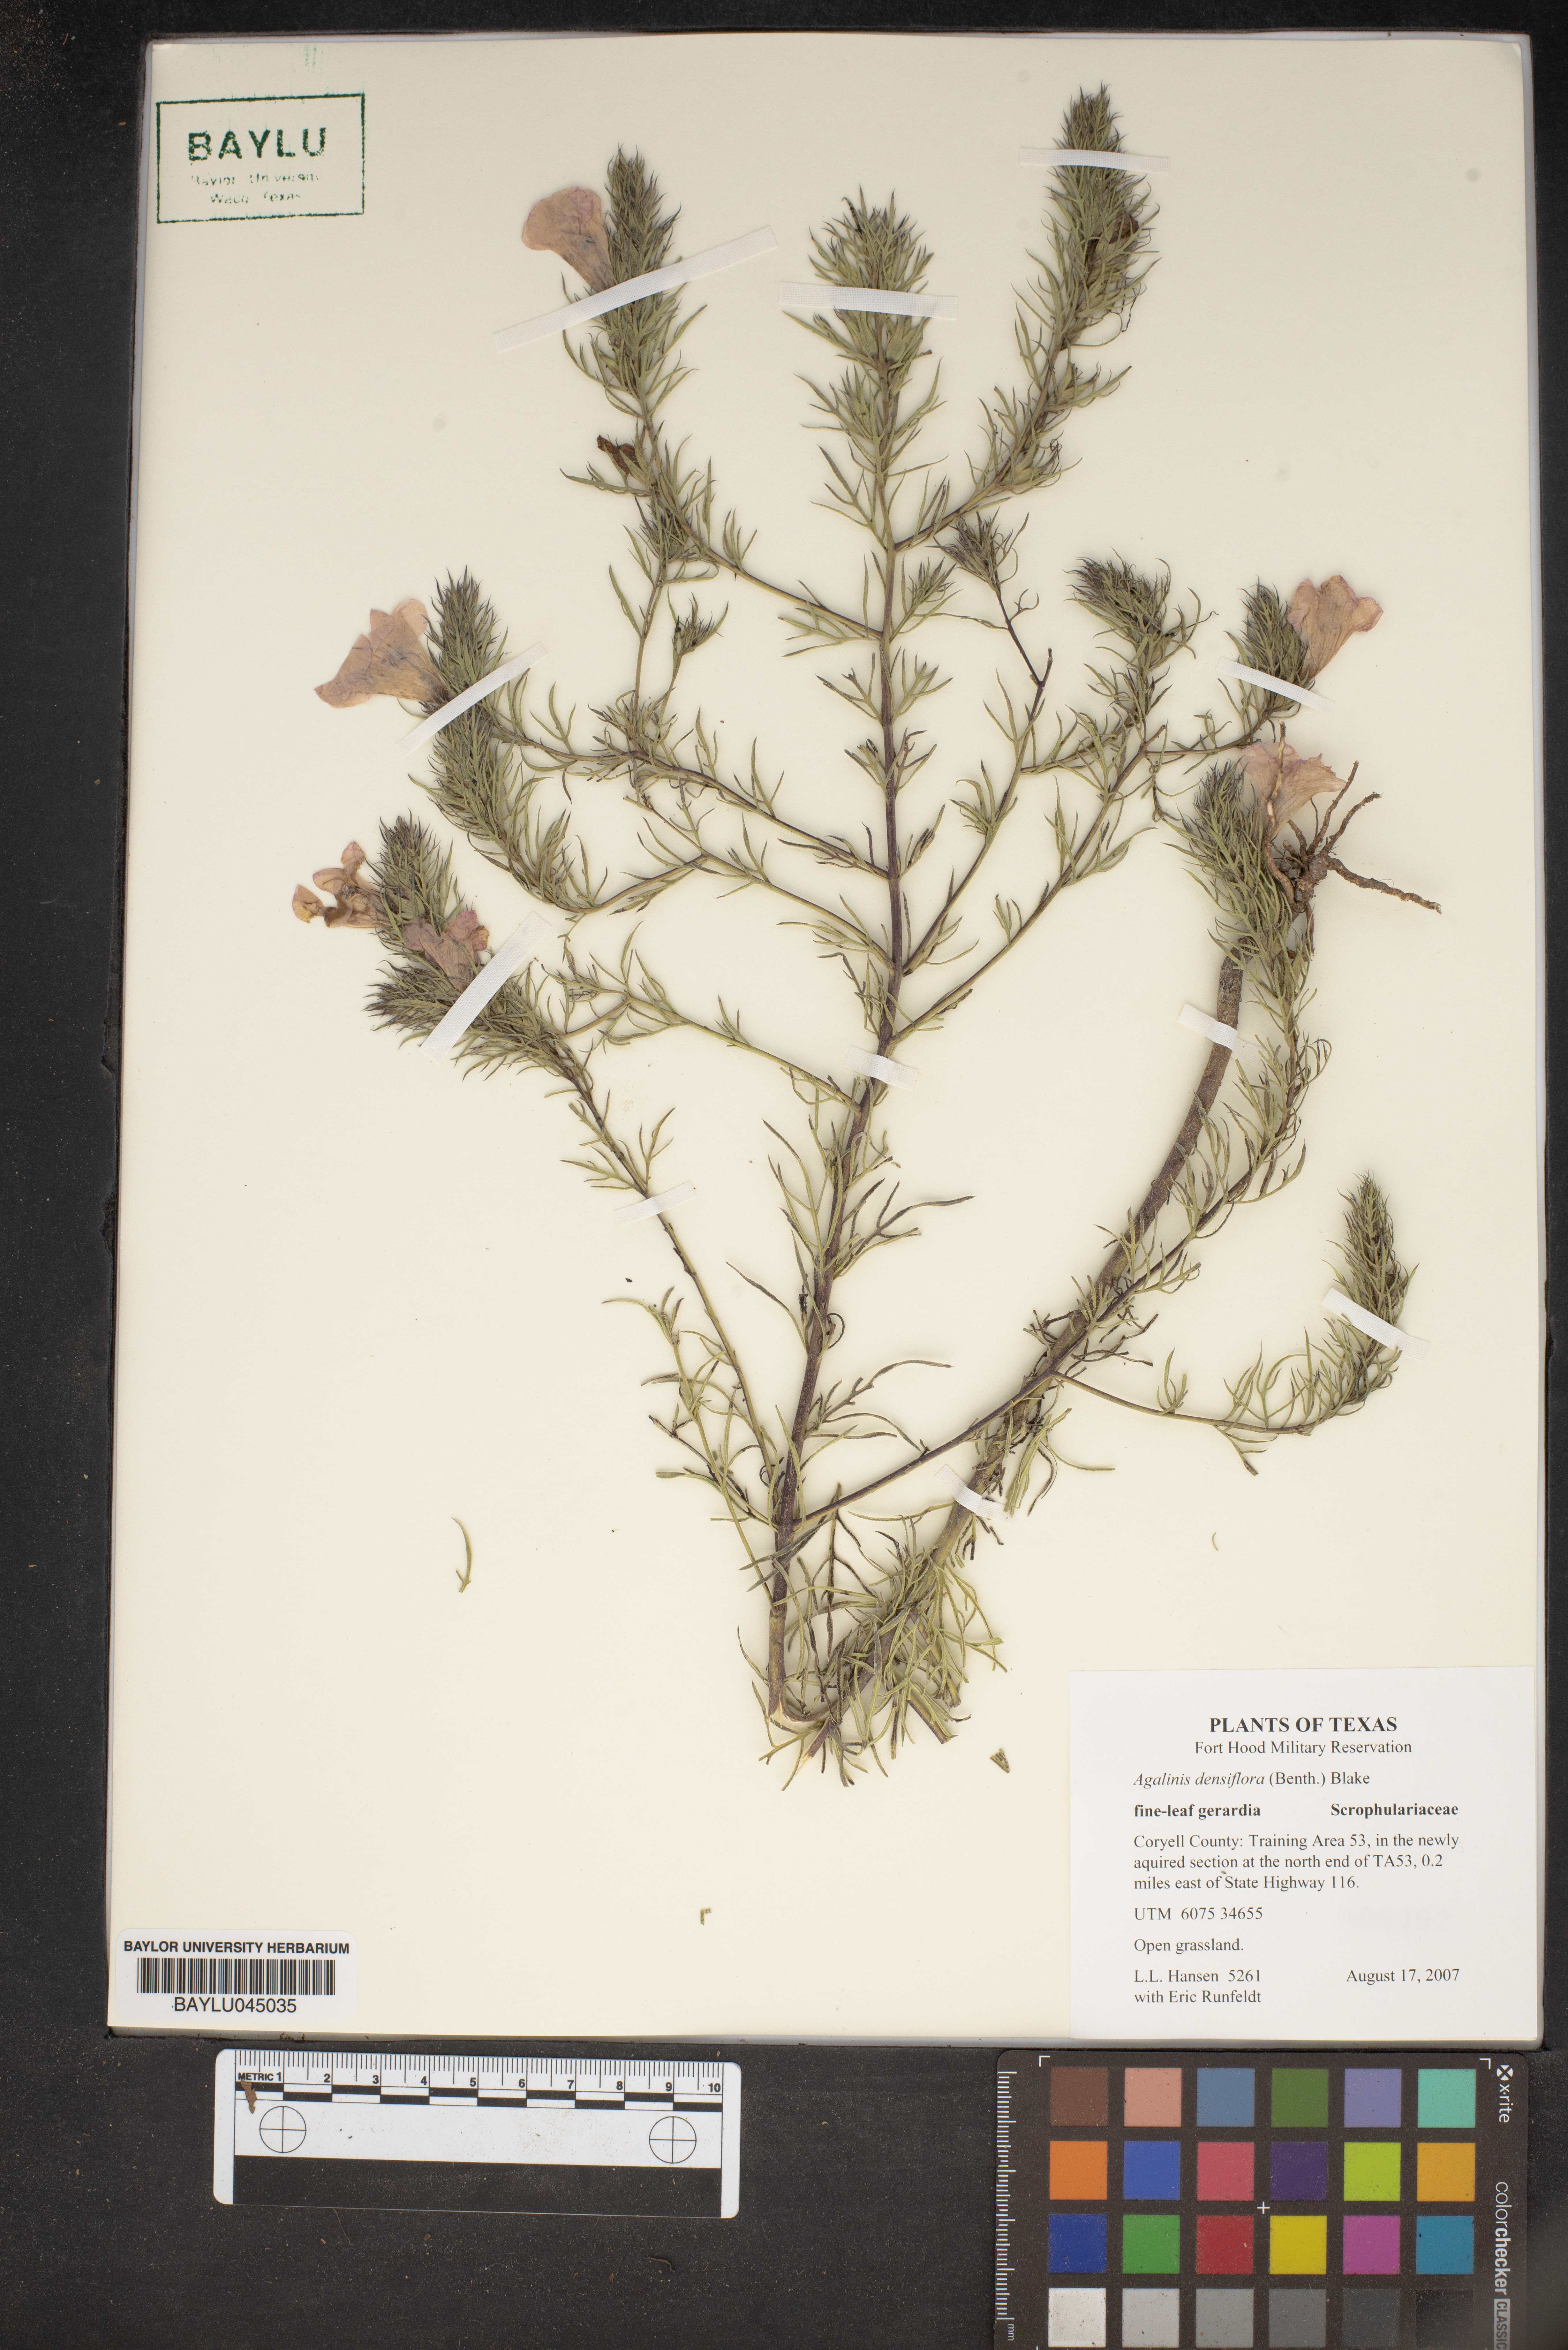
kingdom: Plantae
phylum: Tracheophyta
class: Magnoliopsida
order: Lamiales
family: Orobanchaceae
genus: Agalinis
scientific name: Agalinis densiflora
